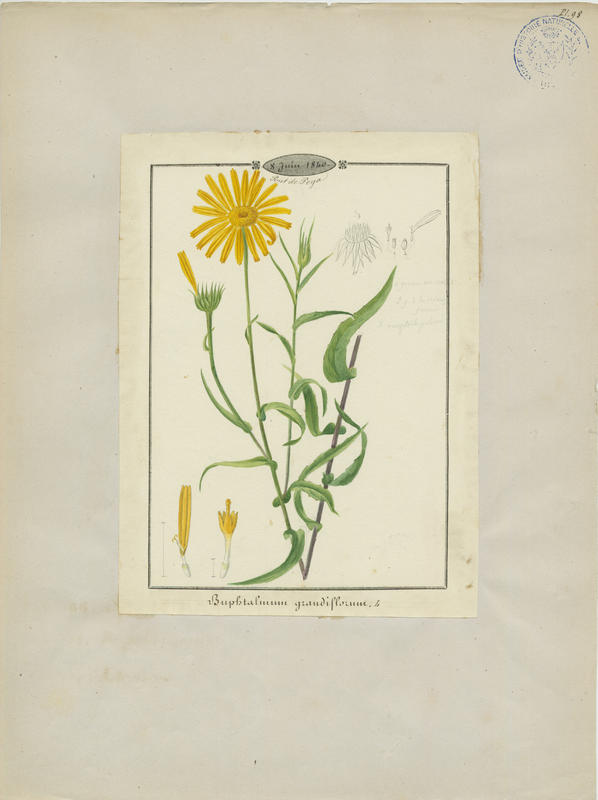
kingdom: Plantae
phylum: Tracheophyta
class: Magnoliopsida
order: Asterales
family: Asteraceae
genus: Buphthalmum
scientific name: Buphthalmum salicifolium
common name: Willow-leaved yellow-oxeye
